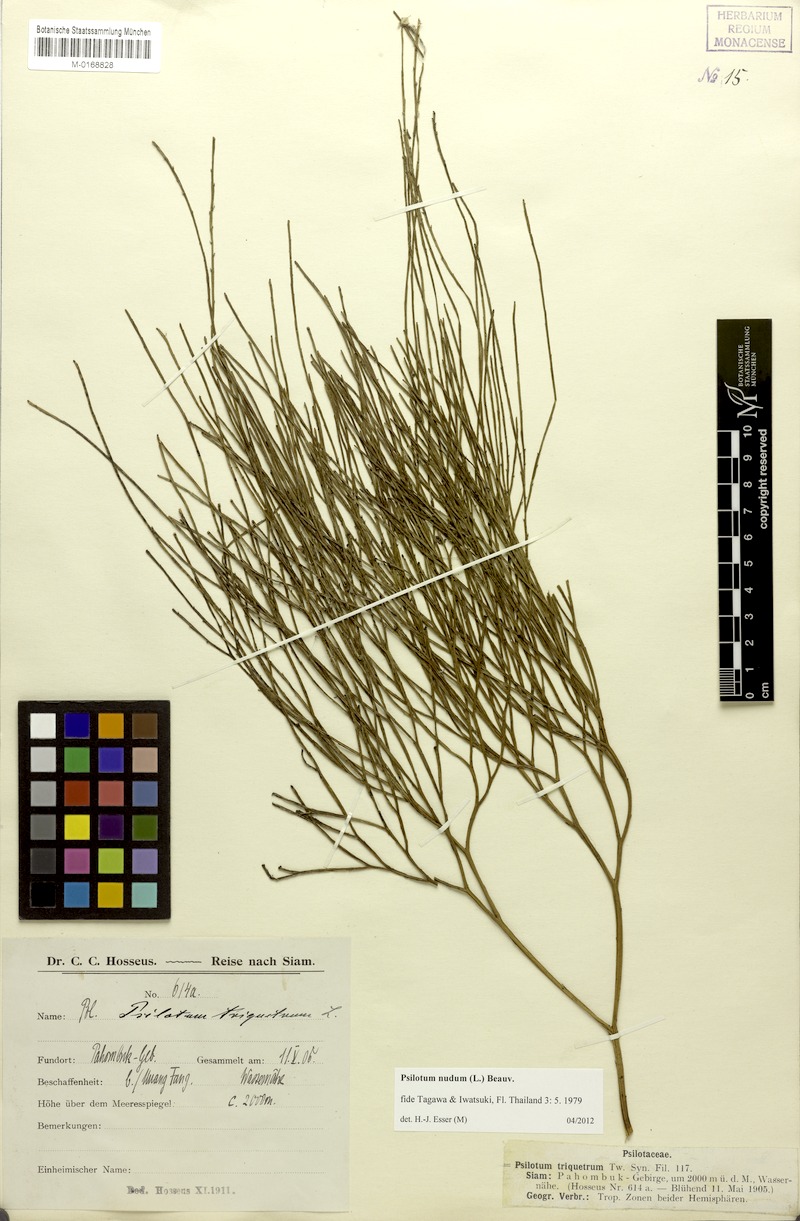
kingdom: Plantae
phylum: Tracheophyta
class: Polypodiopsida
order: Psilotales
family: Psilotaceae
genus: Psilotum
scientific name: Psilotum nudum
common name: Skeleton fork fern
